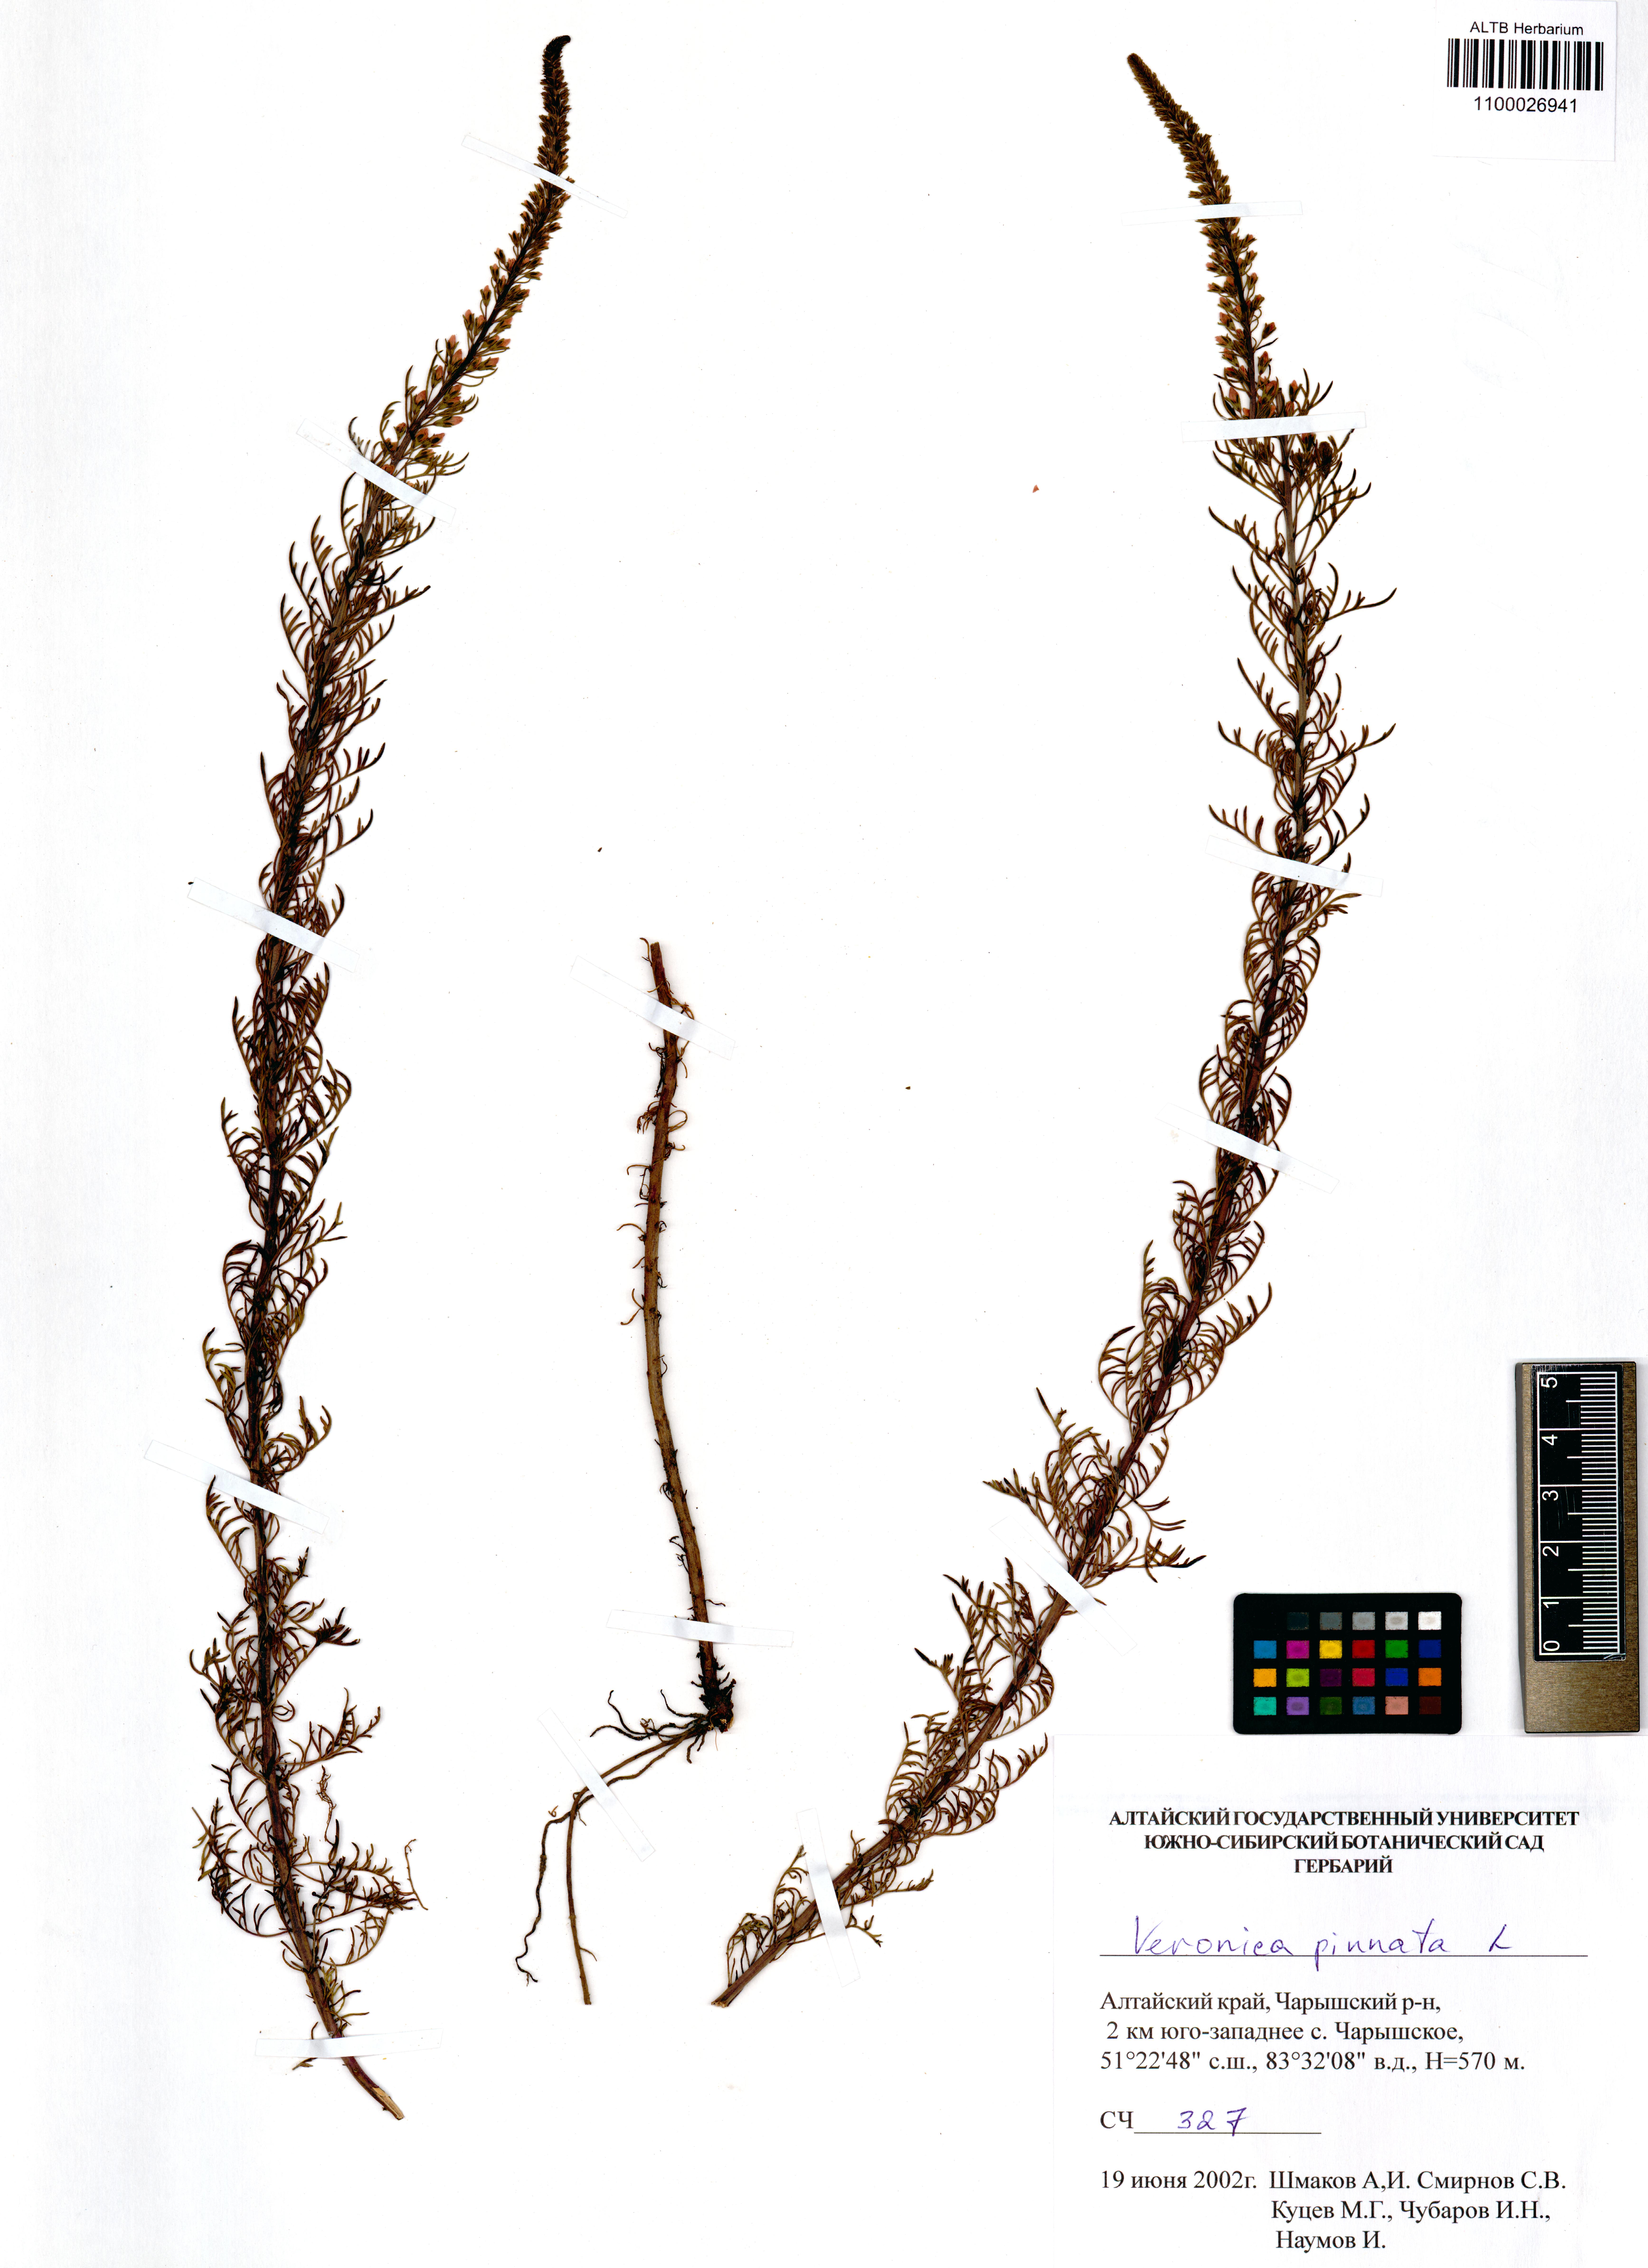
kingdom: Plantae
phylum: Tracheophyta
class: Magnoliopsida
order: Lamiales
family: Plantaginaceae
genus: Veronica
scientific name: Veronica pinnata
